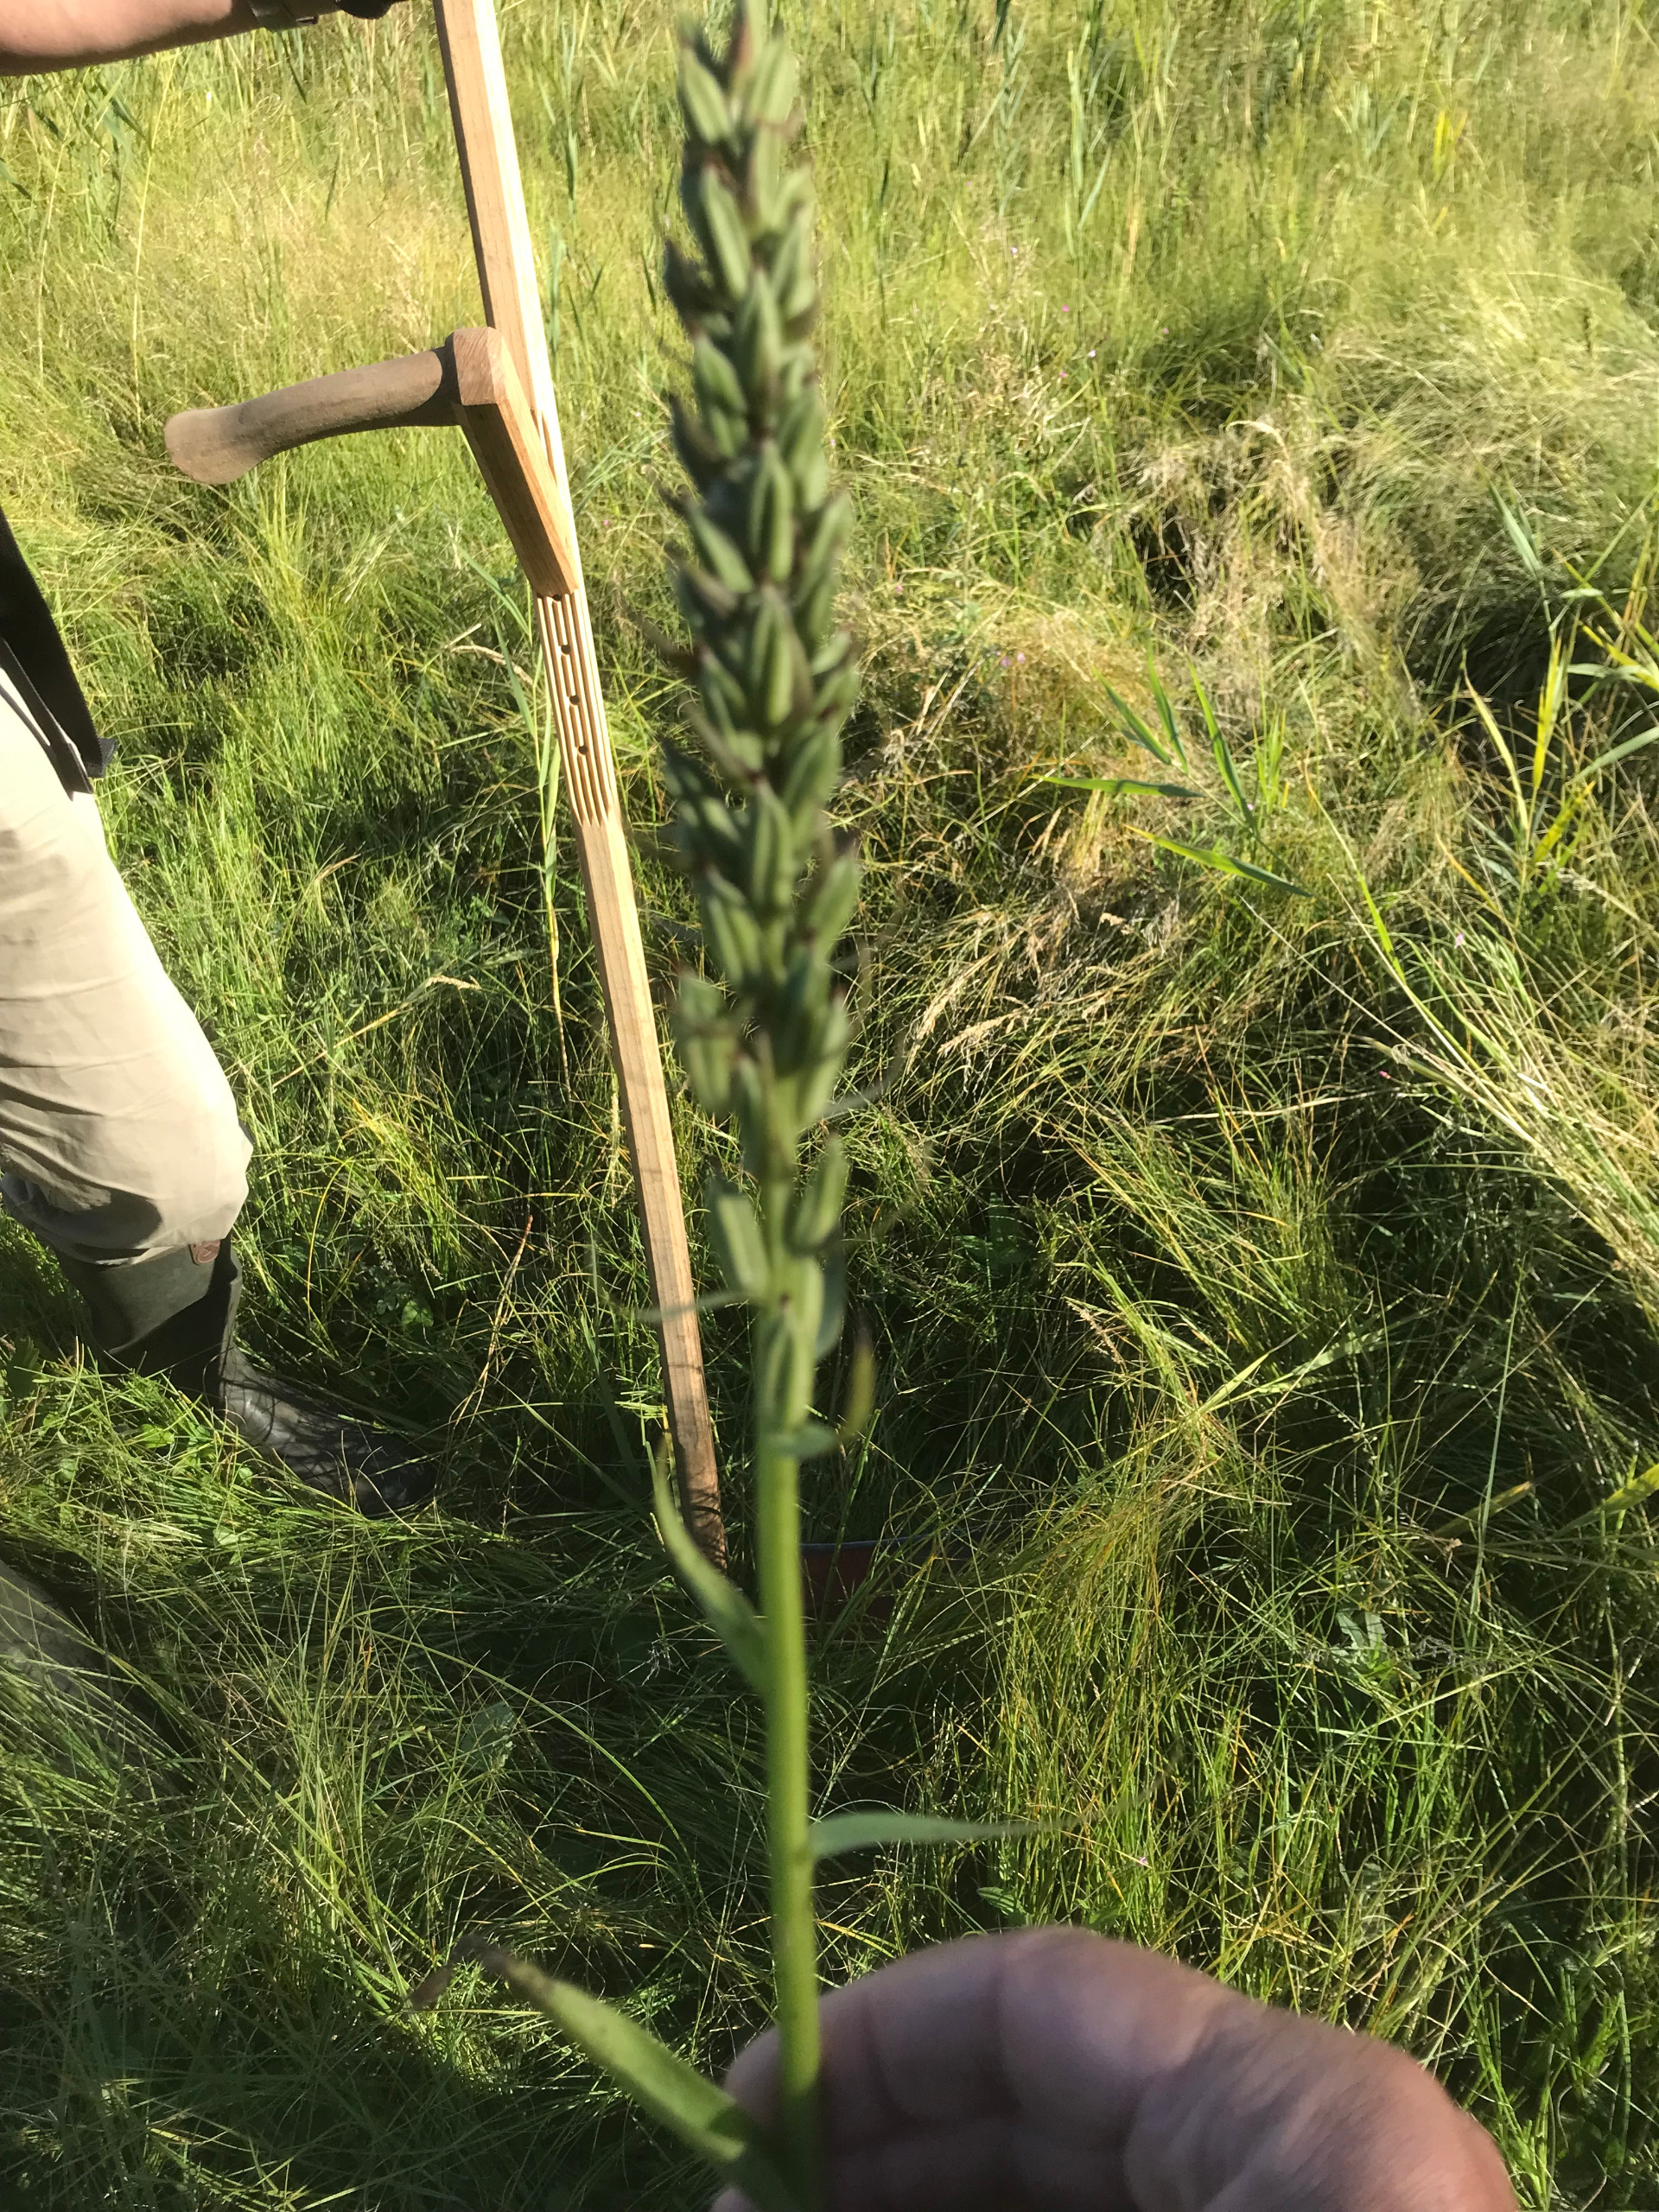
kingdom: Plantae
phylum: Tracheophyta
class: Liliopsida
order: Asparagales
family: Orchidaceae
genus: Dactylorhiza
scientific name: Dactylorhiza majalis
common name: Priklæbet gøgeurt
